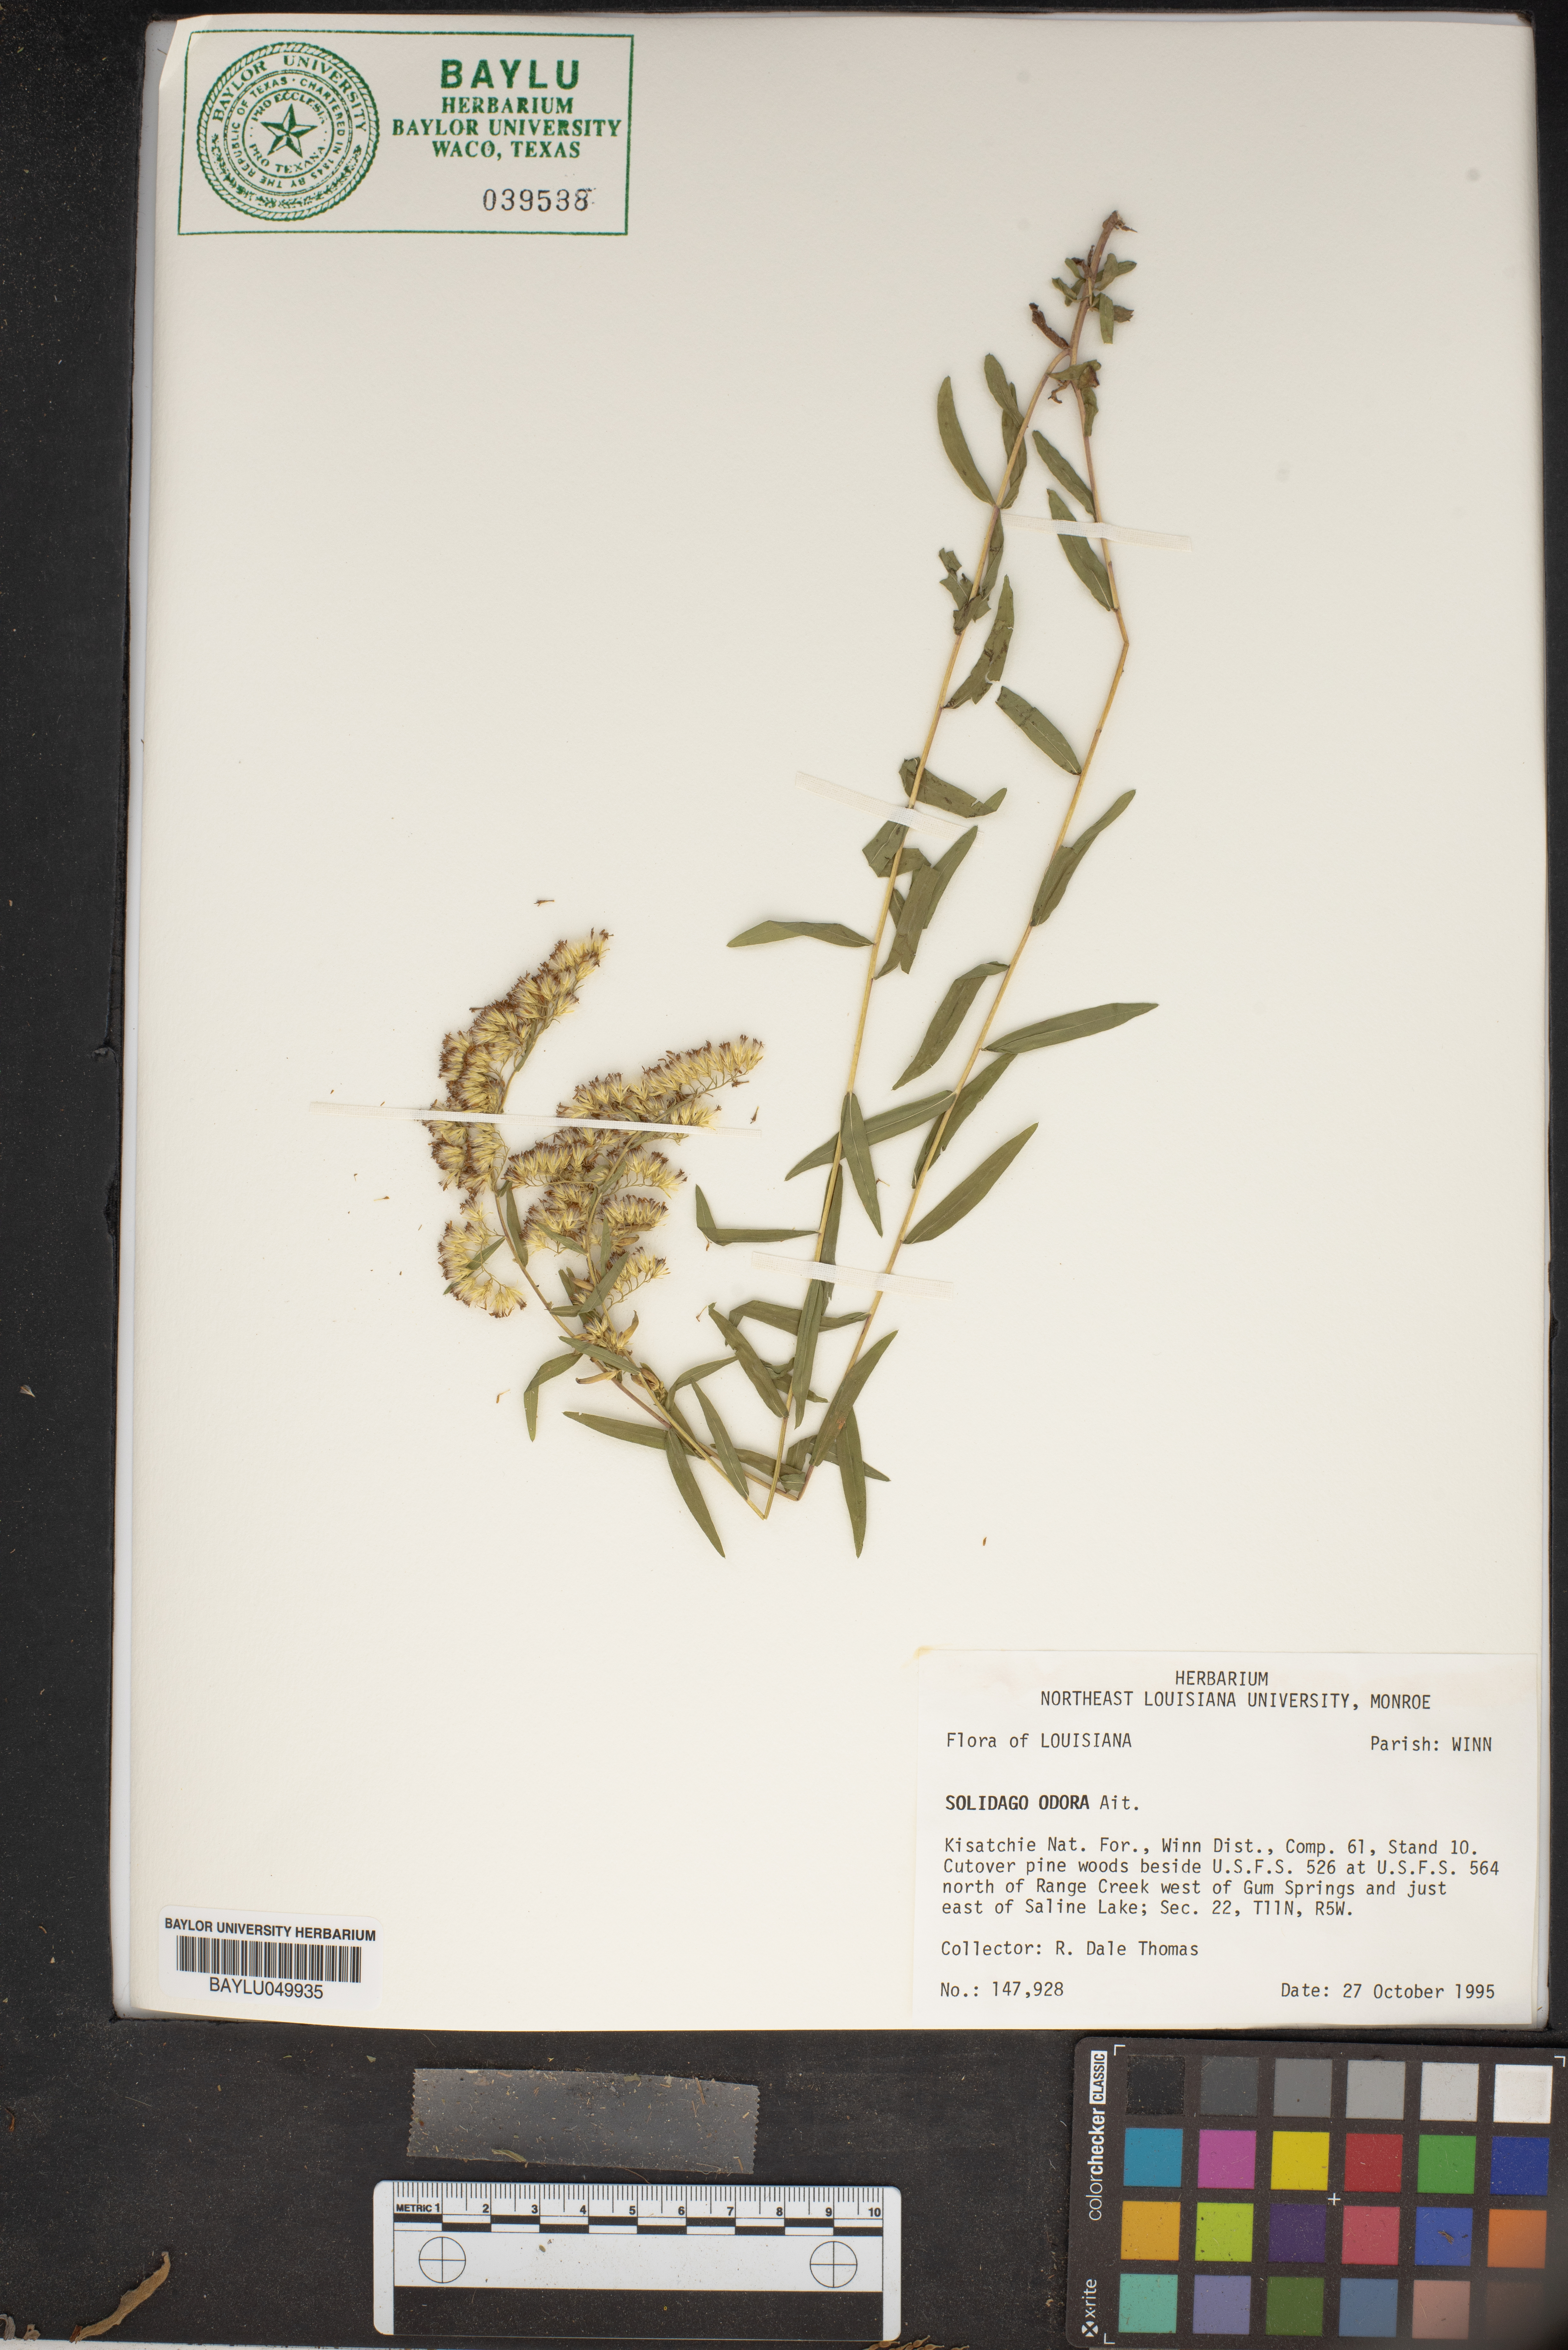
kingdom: Plantae
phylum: Tracheophyta
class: Magnoliopsida
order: Asterales
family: Asteraceae
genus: Solidago
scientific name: Solidago odora
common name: Anise-scented goldenrod
